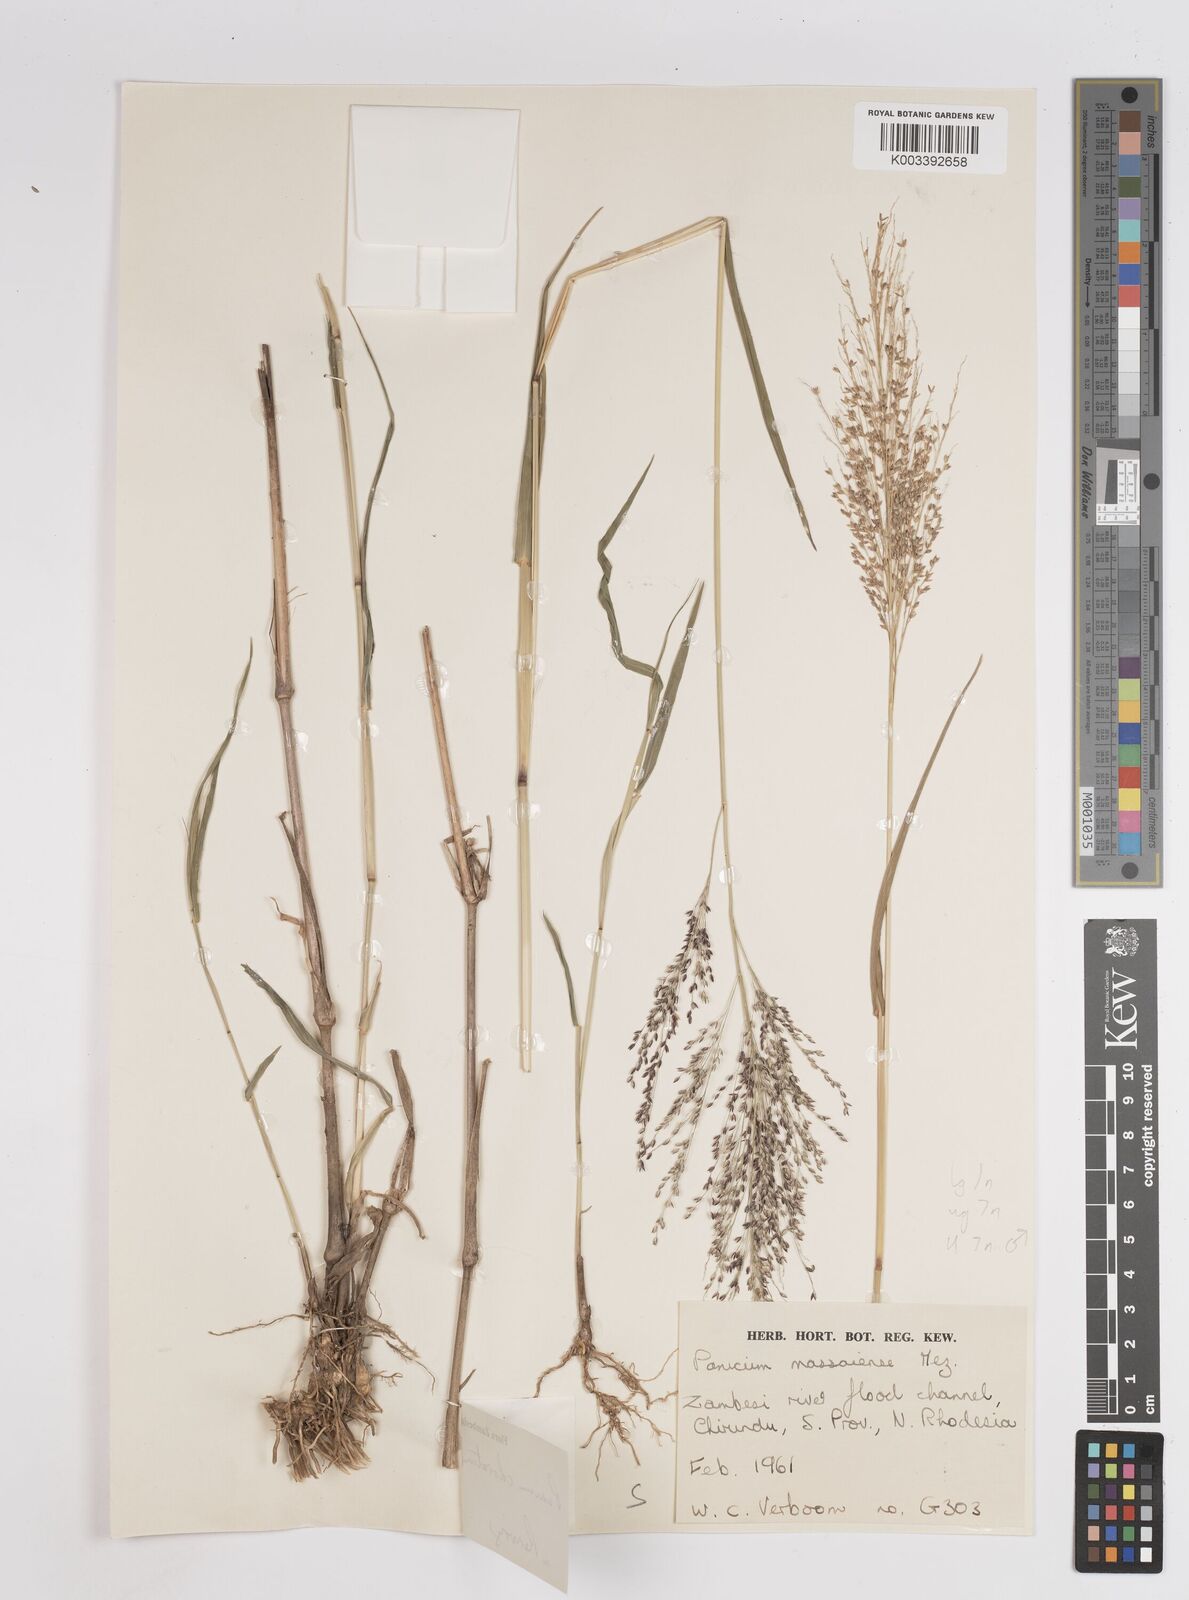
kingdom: Plantae
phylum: Tracheophyta
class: Liliopsida
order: Poales
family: Poaceae
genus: Panicum
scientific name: Panicum
